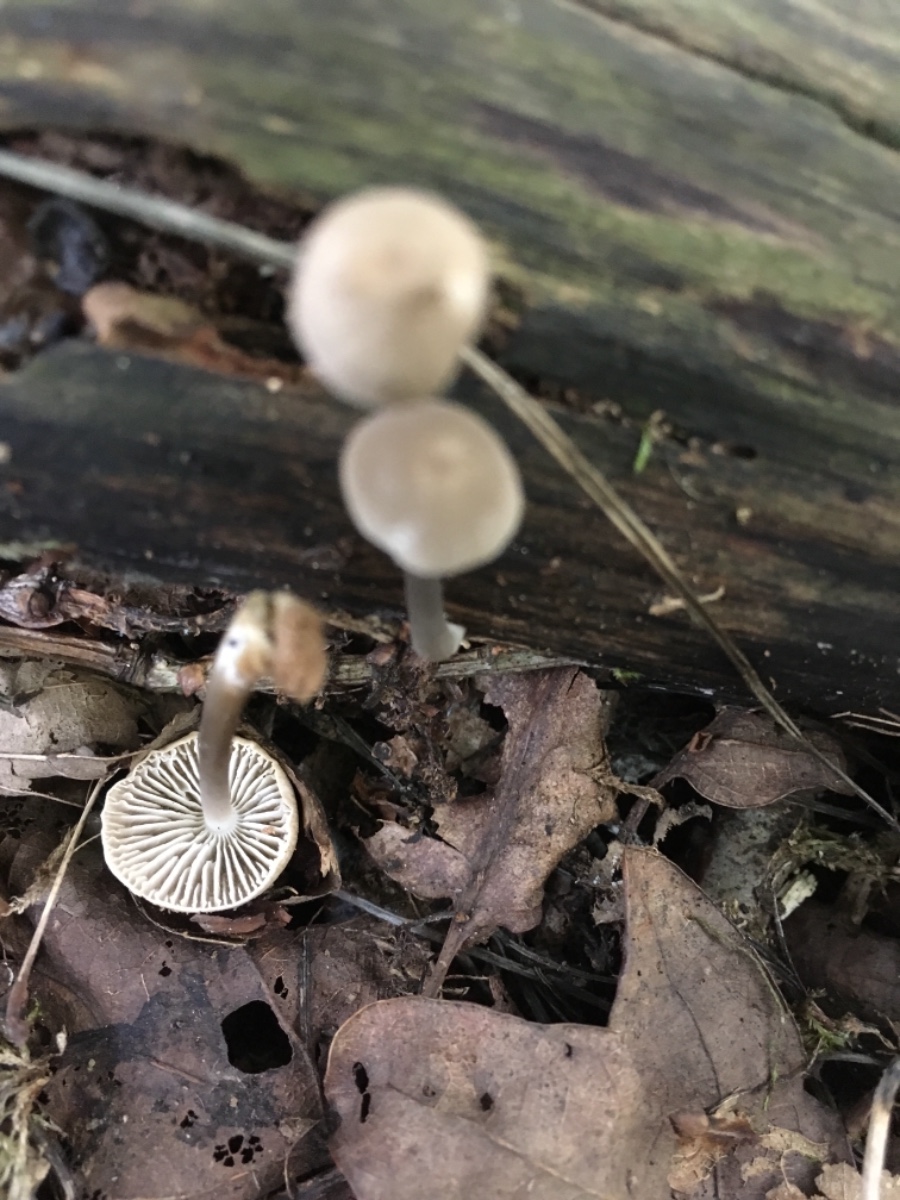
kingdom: Fungi
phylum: Basidiomycota
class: Agaricomycetes
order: Agaricales
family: Mycenaceae
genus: Mycena
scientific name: Mycena galericulata
